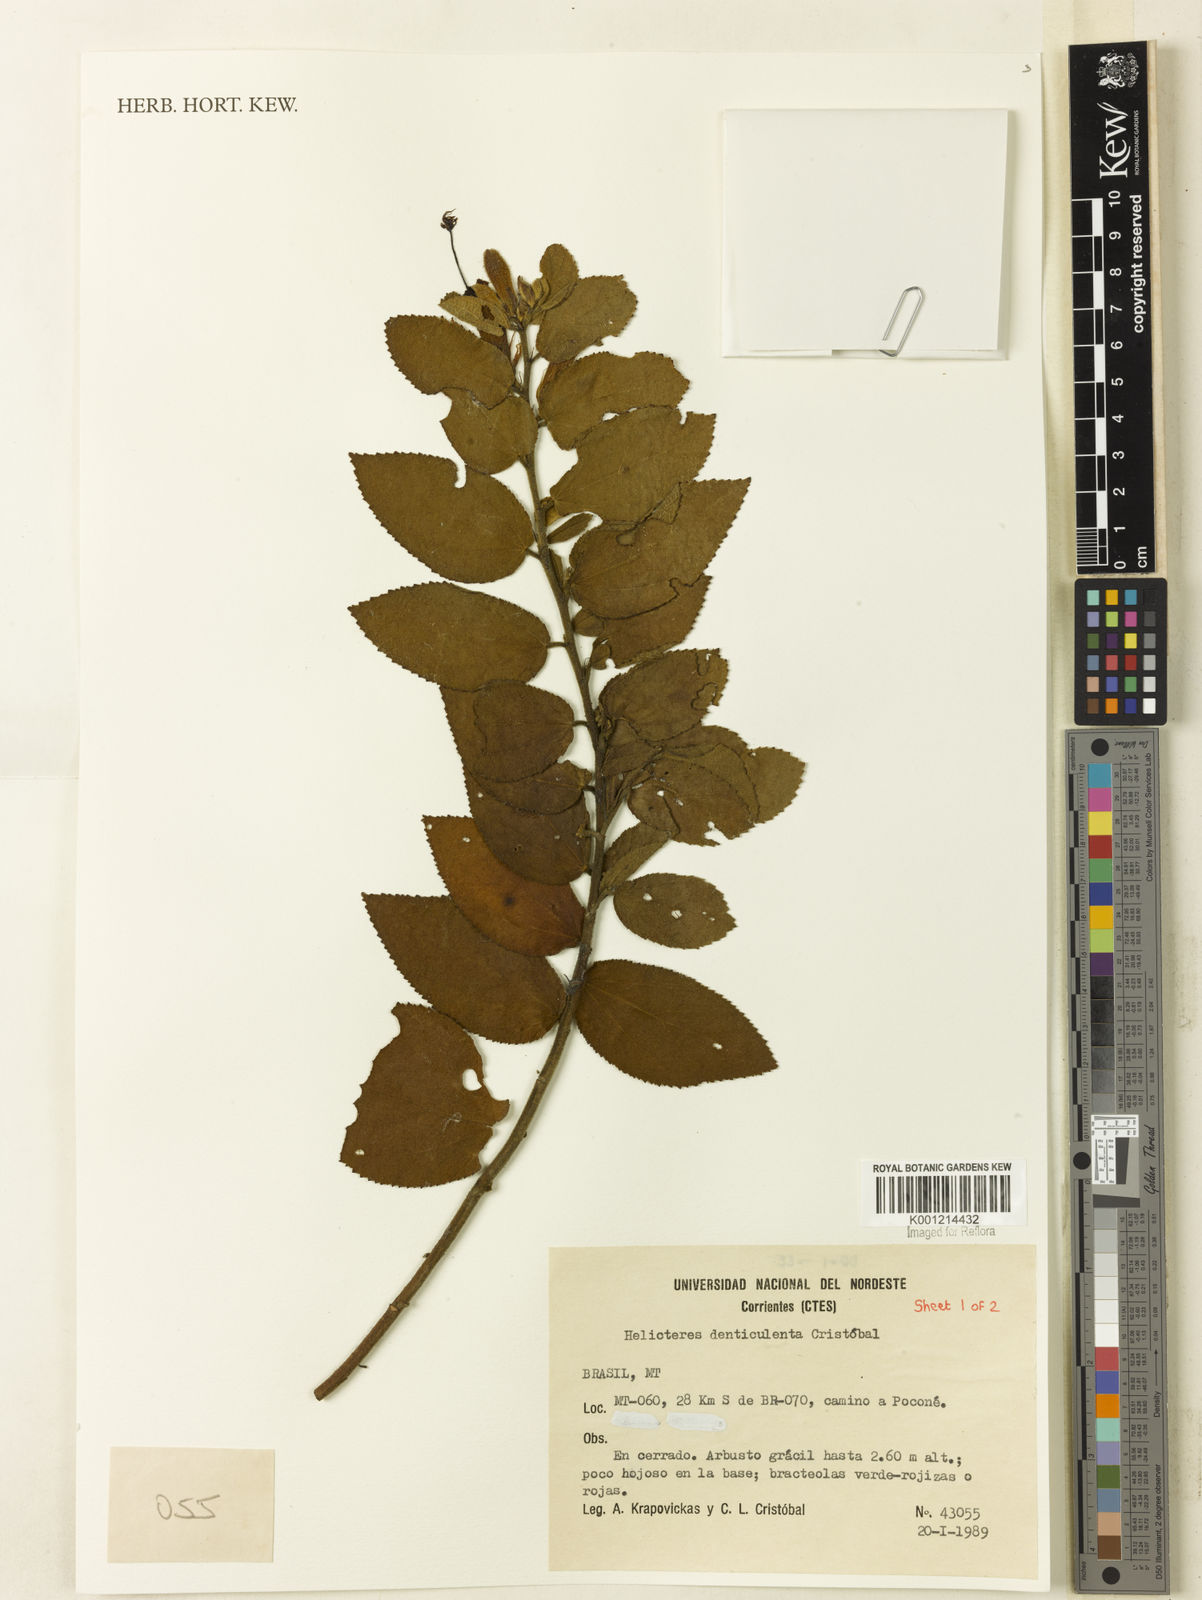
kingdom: Plantae
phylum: Tracheophyta
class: Magnoliopsida
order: Malvales
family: Malvaceae
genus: Helicteres
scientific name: Helicteres
